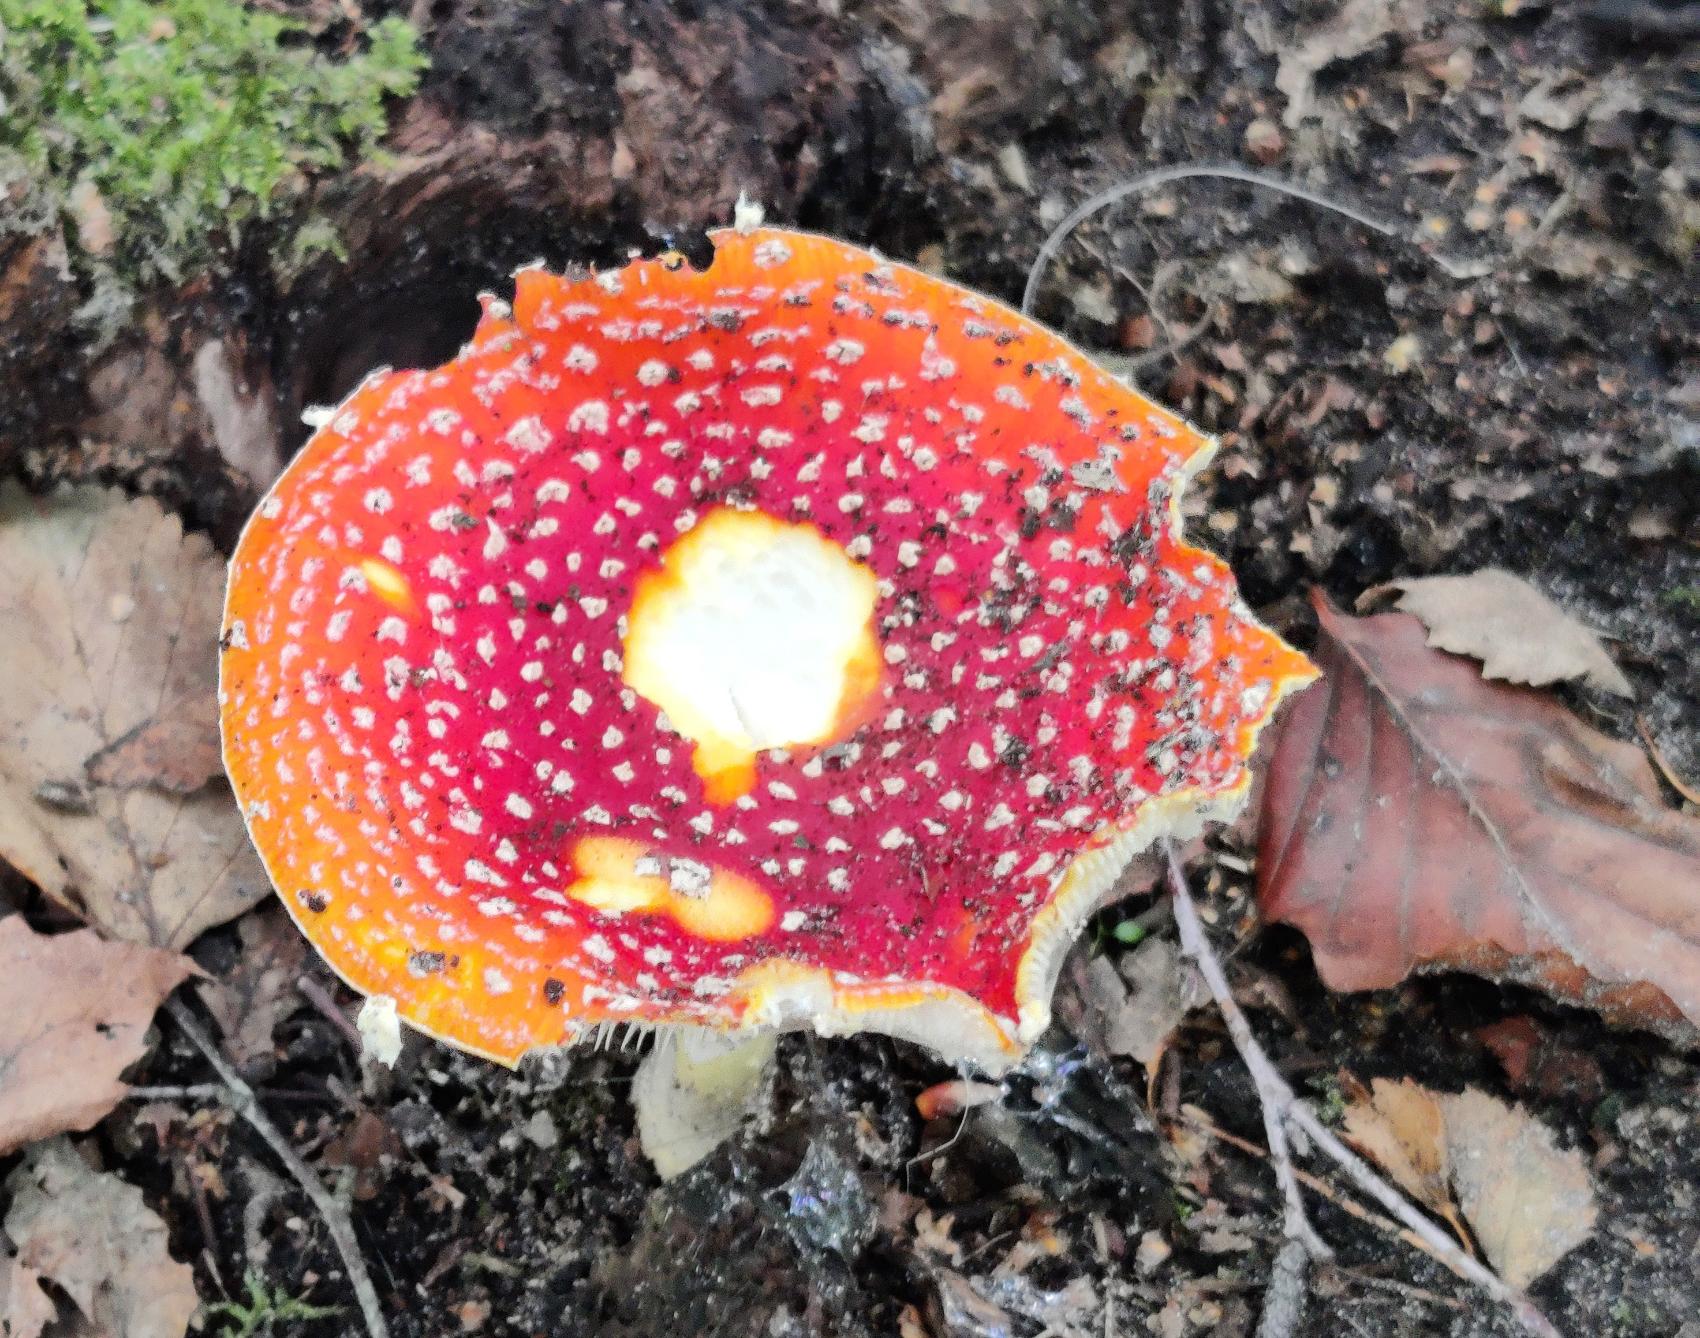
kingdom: Fungi
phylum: Basidiomycota
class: Agaricomycetes
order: Agaricales
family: Amanitaceae
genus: Amanita
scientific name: Amanita muscaria
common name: Rød fluesvamp
